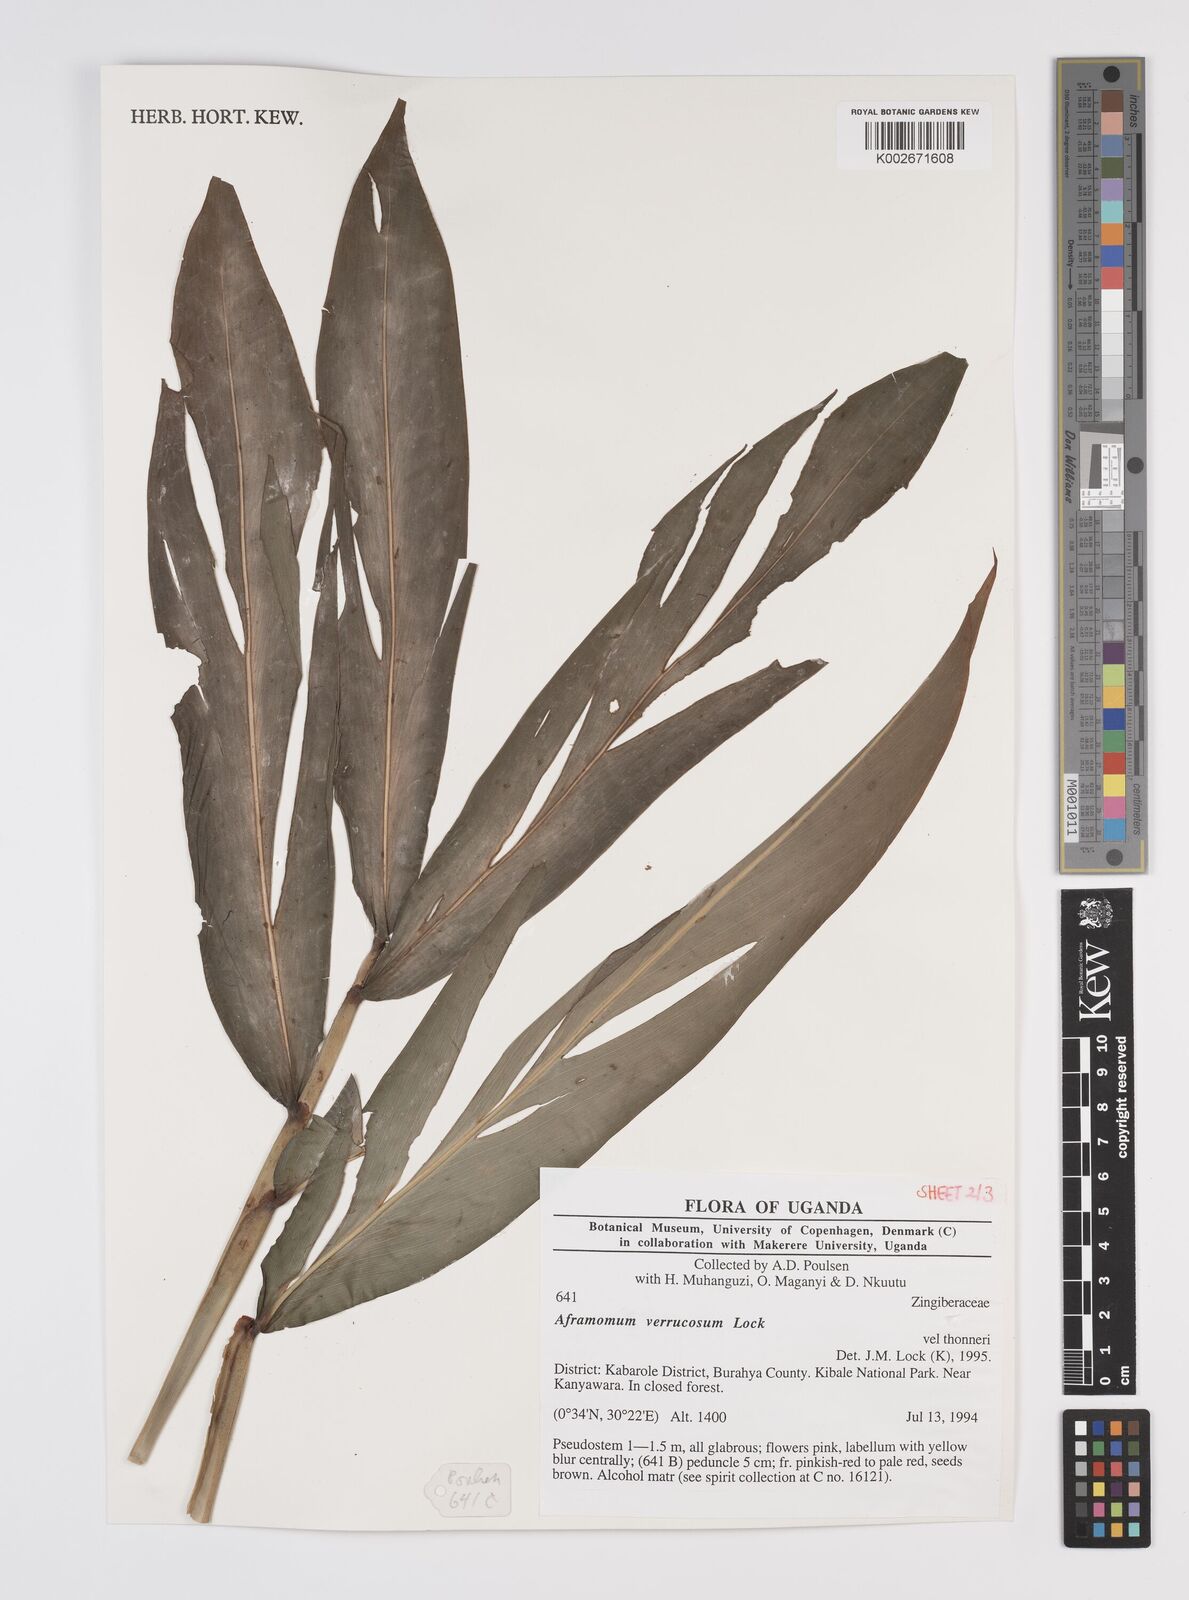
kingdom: Plantae
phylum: Tracheophyta
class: Liliopsida
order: Zingiberales
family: Zingiberaceae
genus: Aframomum
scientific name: Aframomum verrucosum
